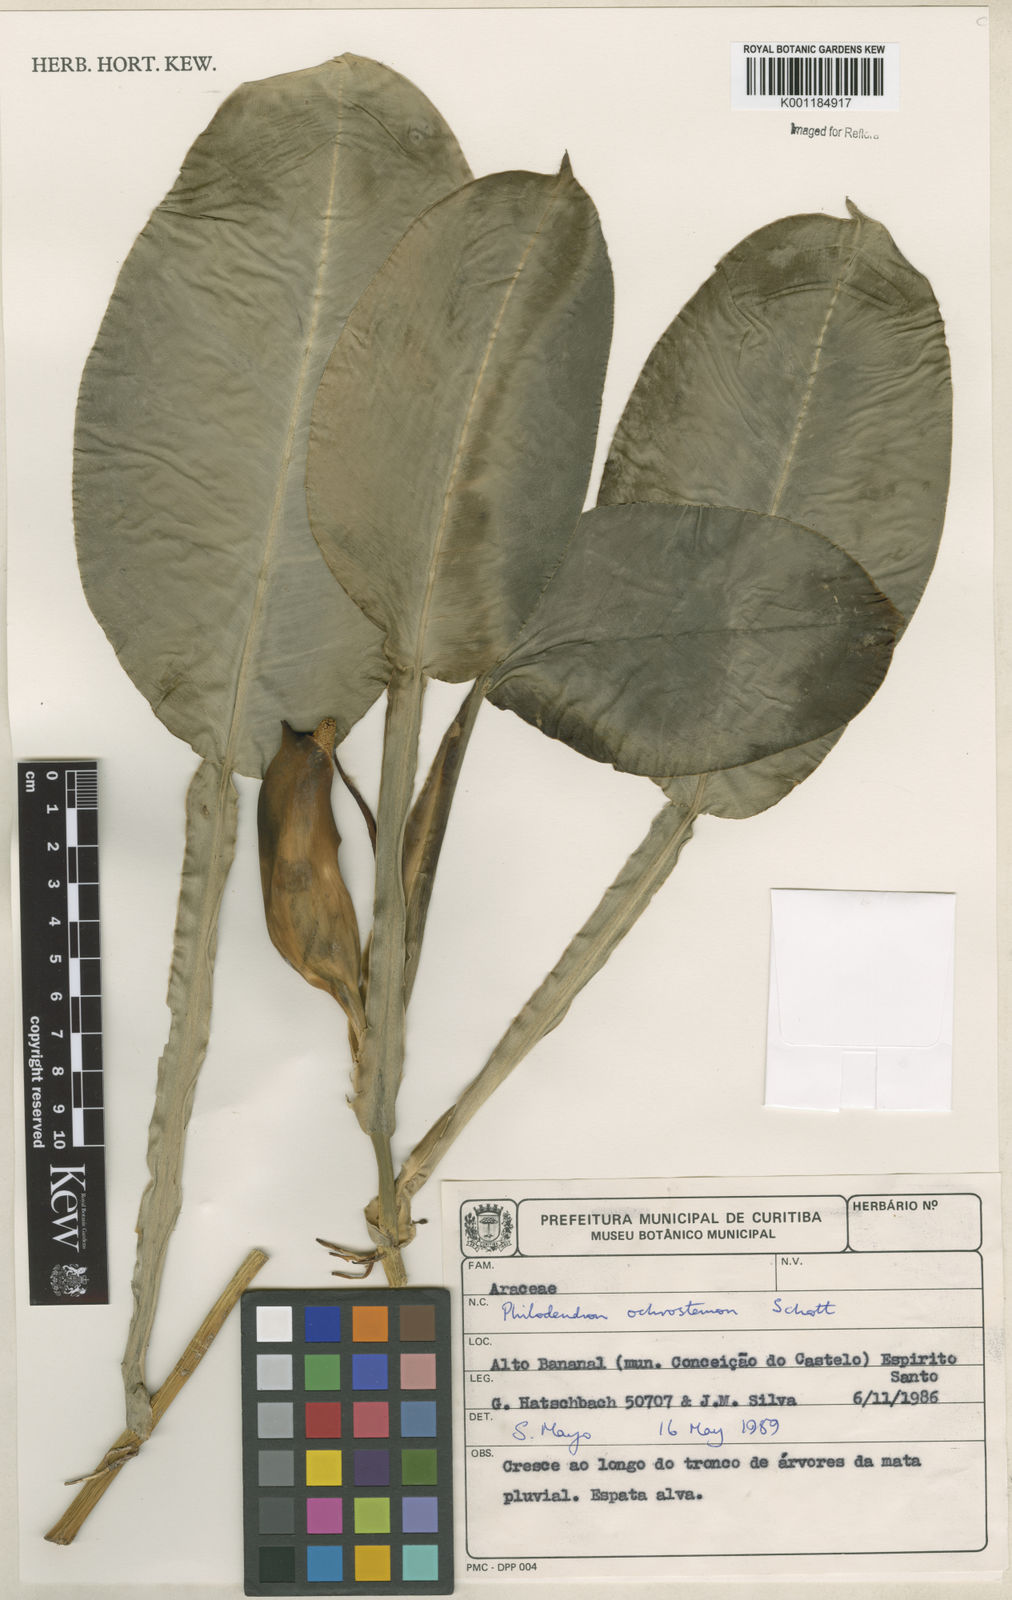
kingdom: Plantae
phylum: Tracheophyta
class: Liliopsida
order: Alismatales
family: Araceae
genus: Philodendron
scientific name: Philodendron ochrostemon
